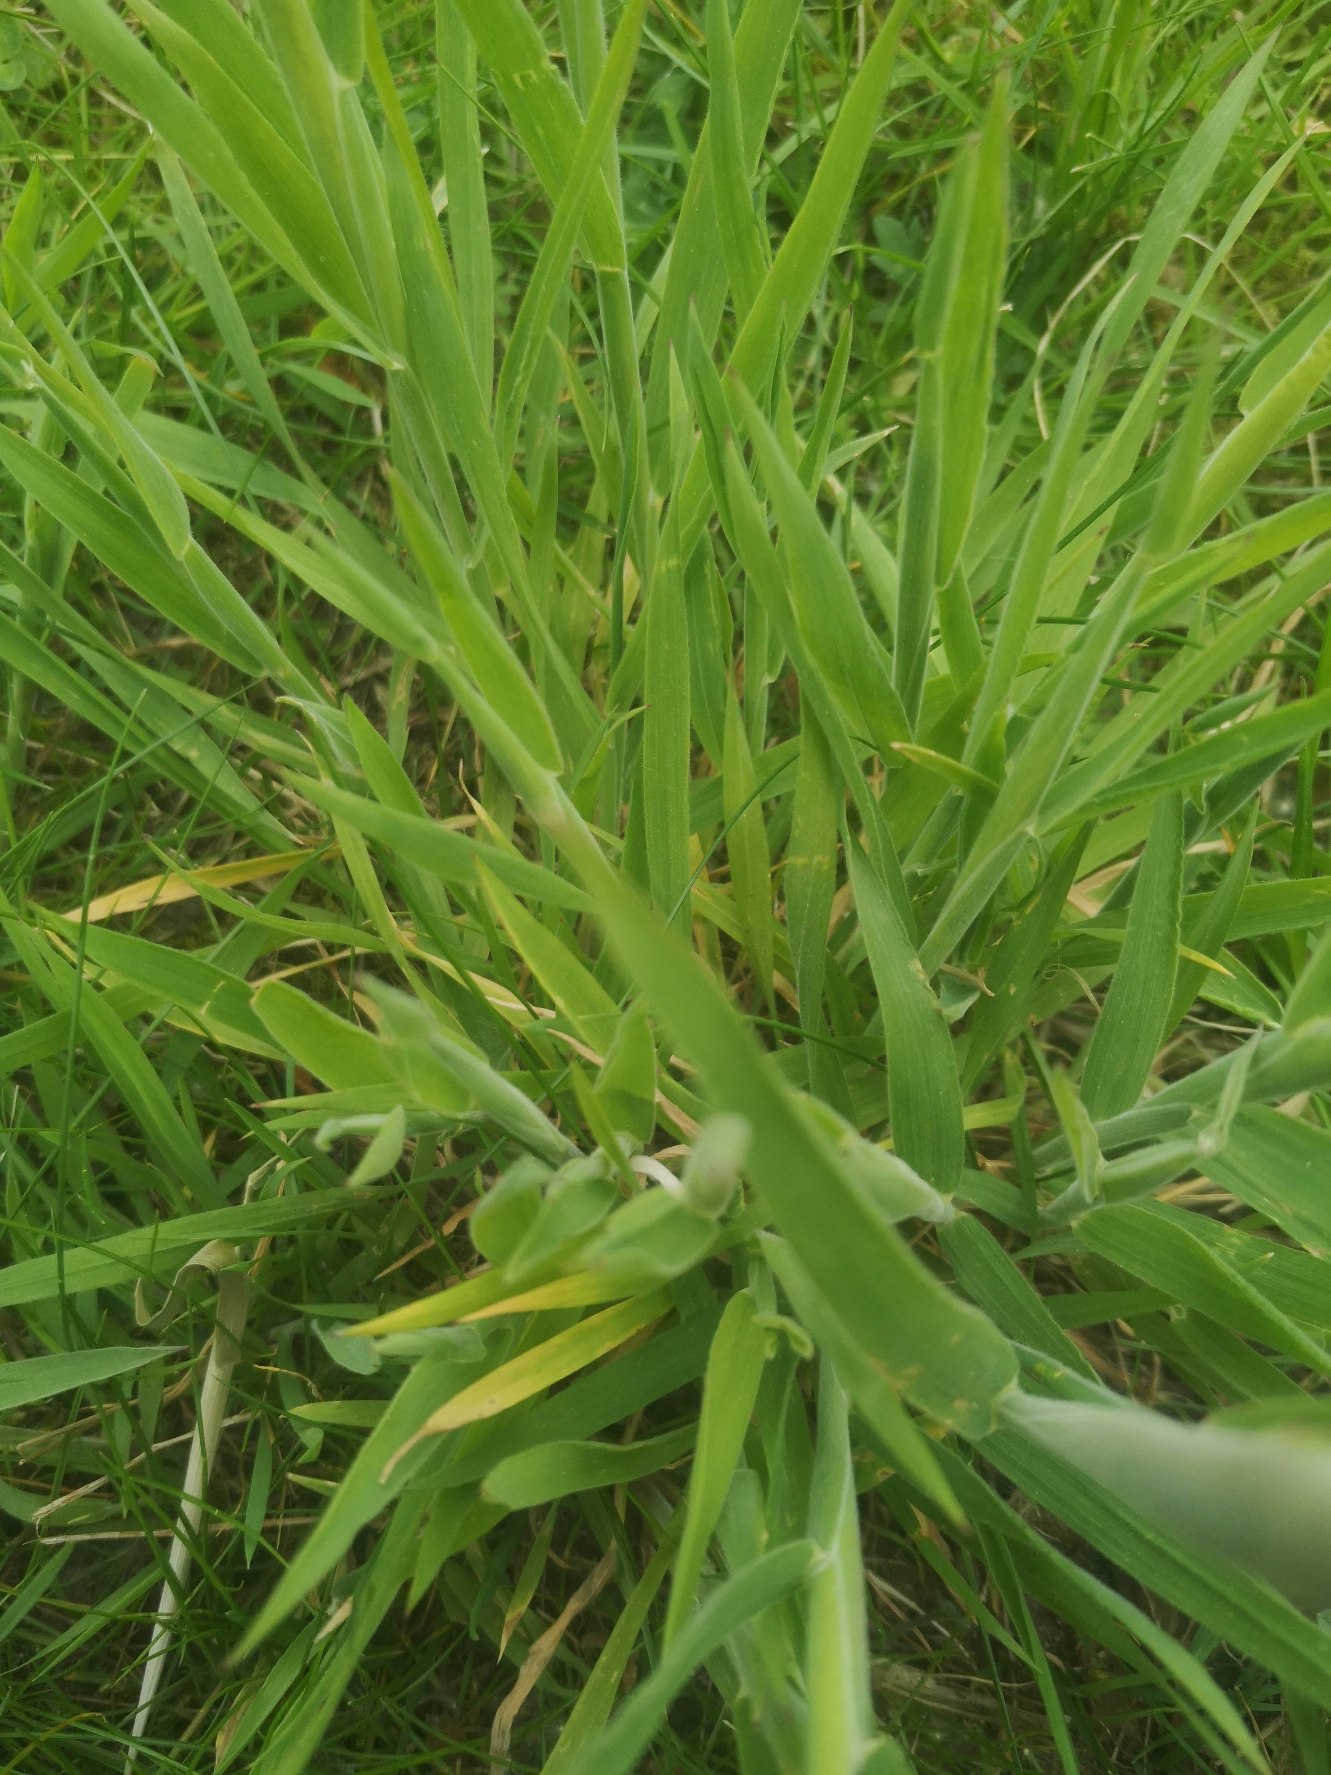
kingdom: Plantae
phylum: Tracheophyta
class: Liliopsida
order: Poales
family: Poaceae
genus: Holcus
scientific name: Holcus lanatus
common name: Fløjlsgræs
